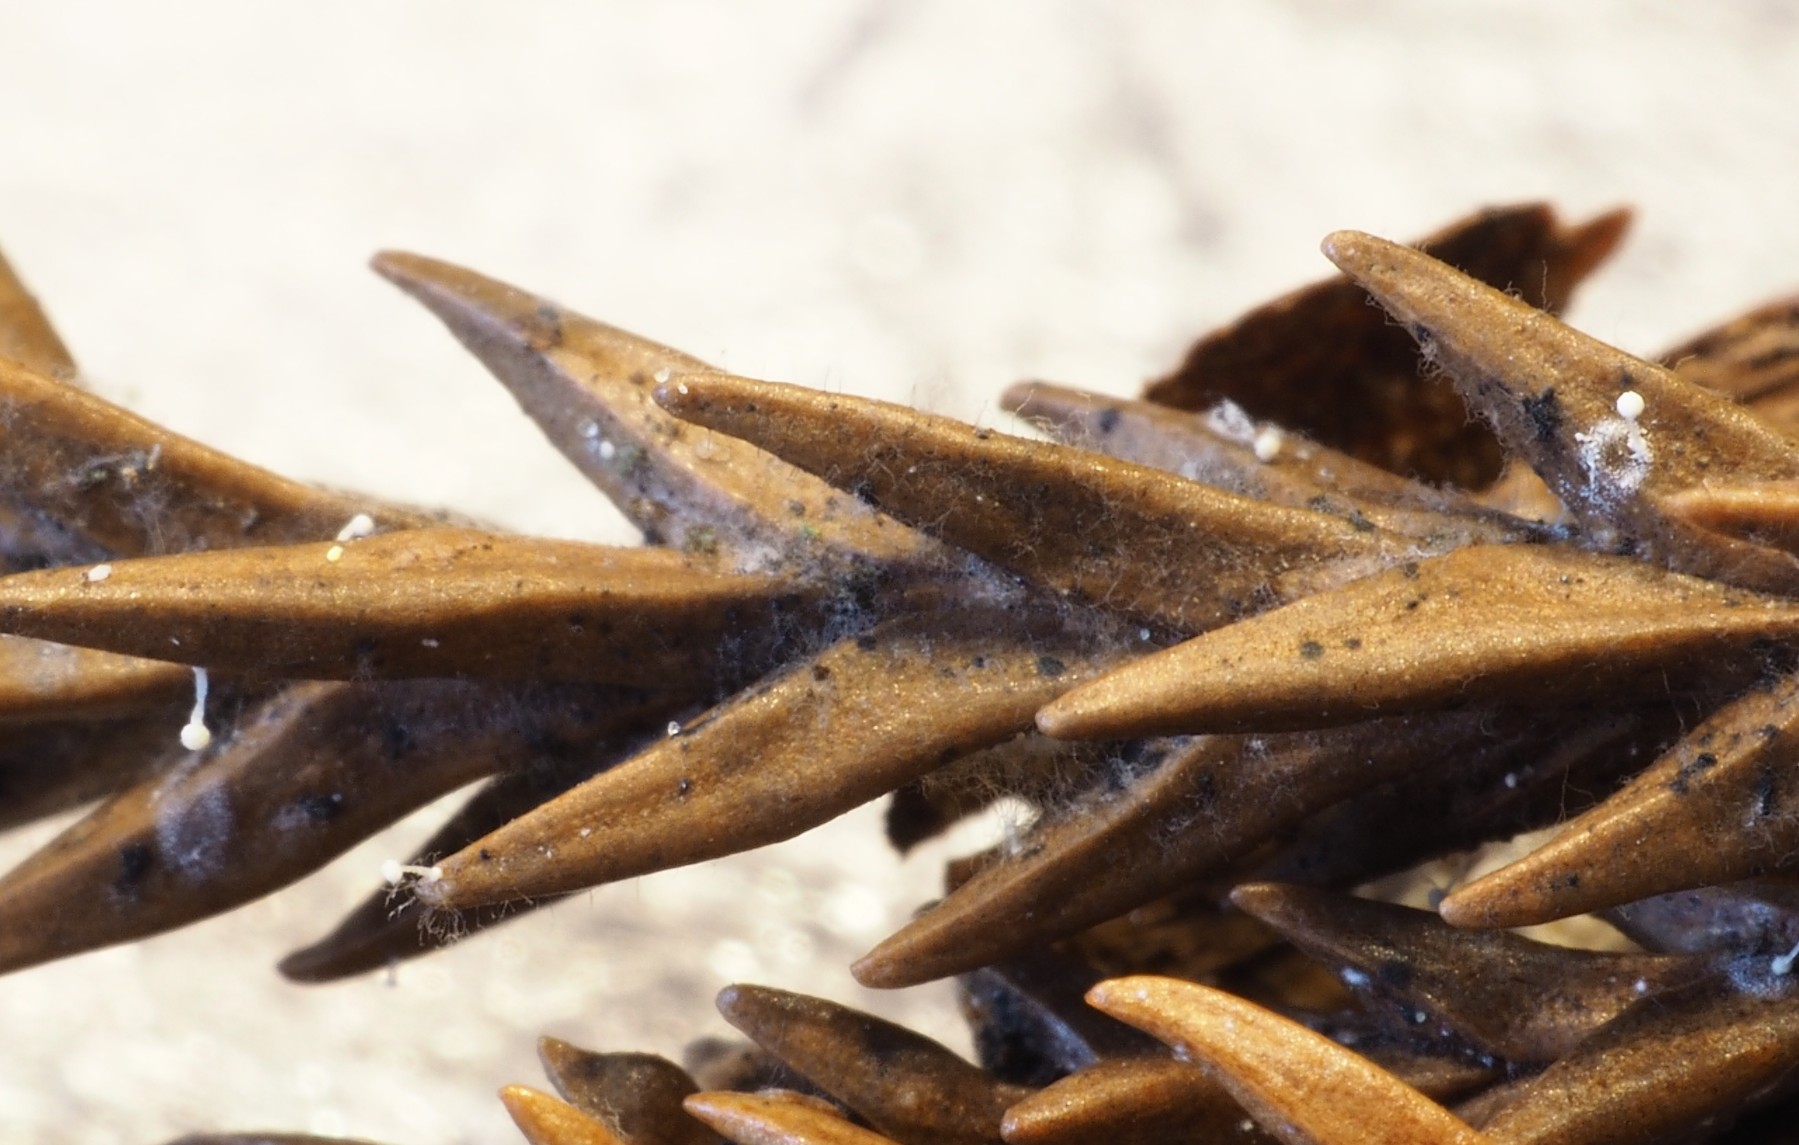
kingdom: Fungi
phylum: Basidiomycota
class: Agaricomycetes
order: Agaricales
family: Physalacriaceae
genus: Physalacria
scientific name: Physalacria cryptomeriae
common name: japangran-boldkølle
